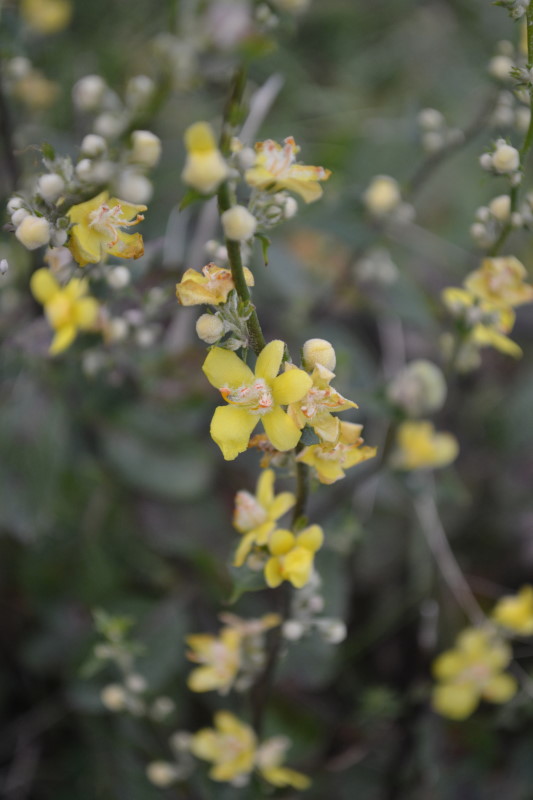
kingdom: Plantae
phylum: Tracheophyta
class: Magnoliopsida
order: Lamiales
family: Scrophulariaceae
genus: Verbascum
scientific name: Verbascum undulatum
